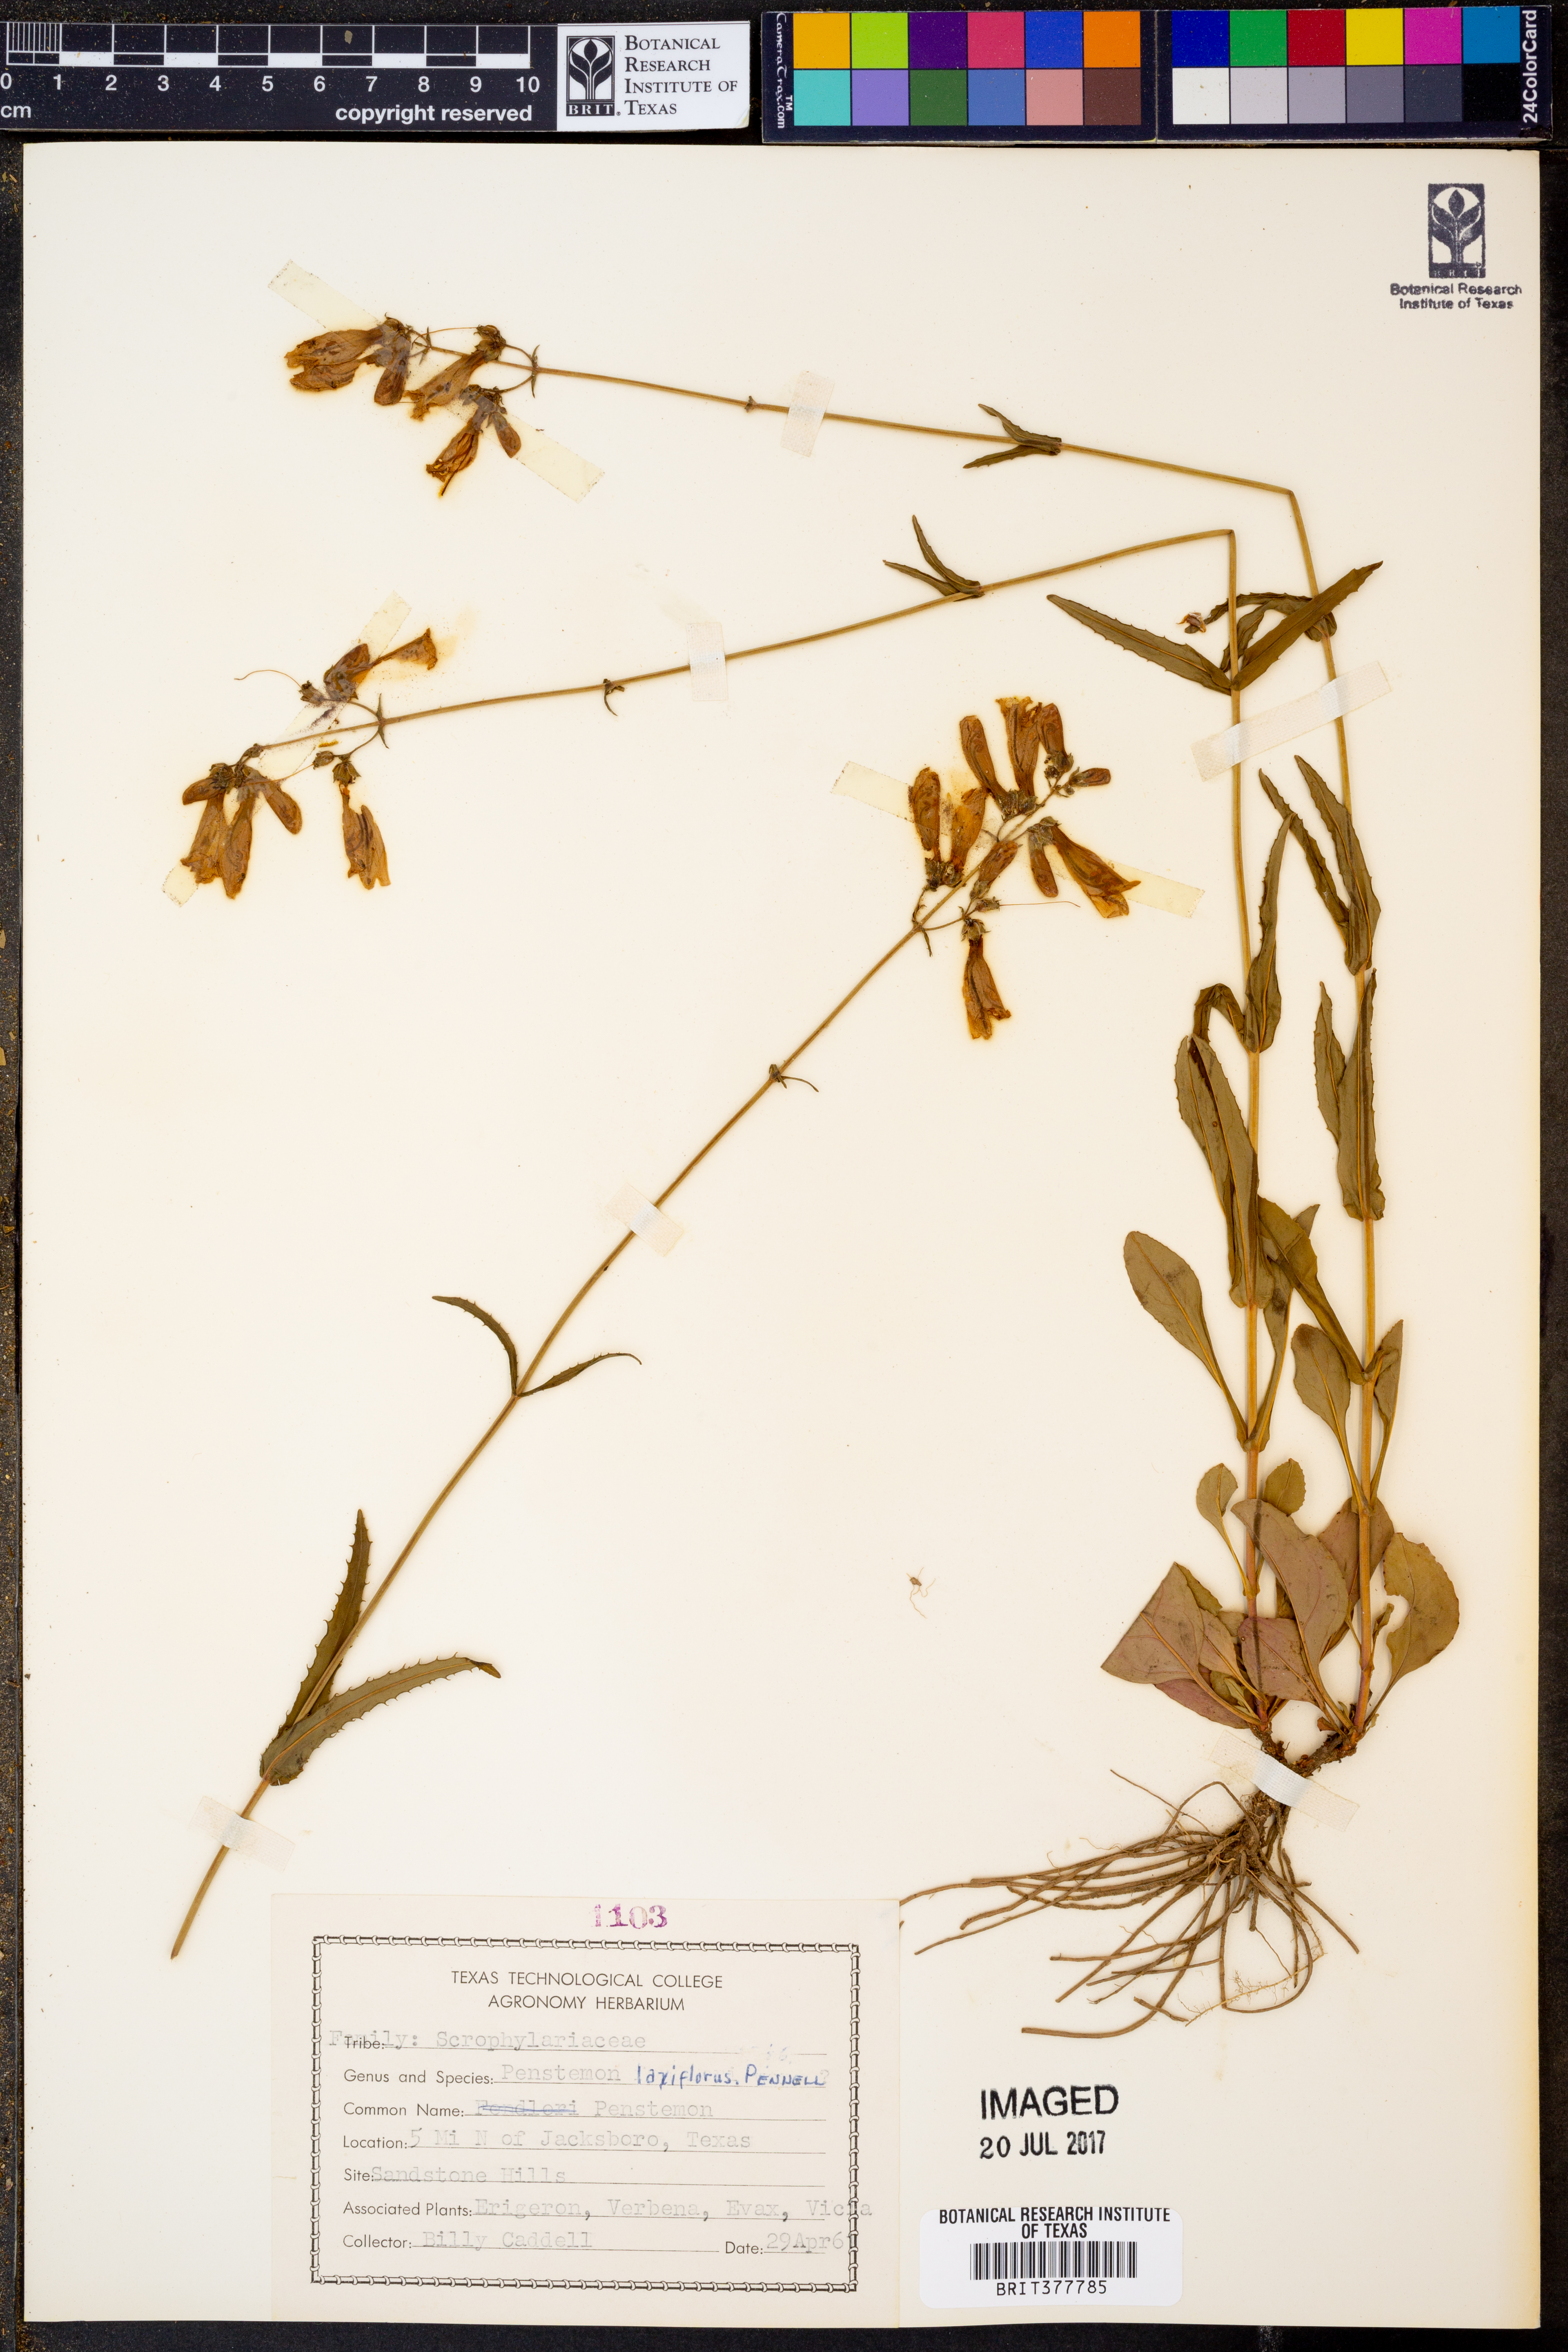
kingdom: Plantae
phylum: Tracheophyta
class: Magnoliopsida
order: Lamiales
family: Plantaginaceae
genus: Penstemon
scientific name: Penstemon laxiflorus
